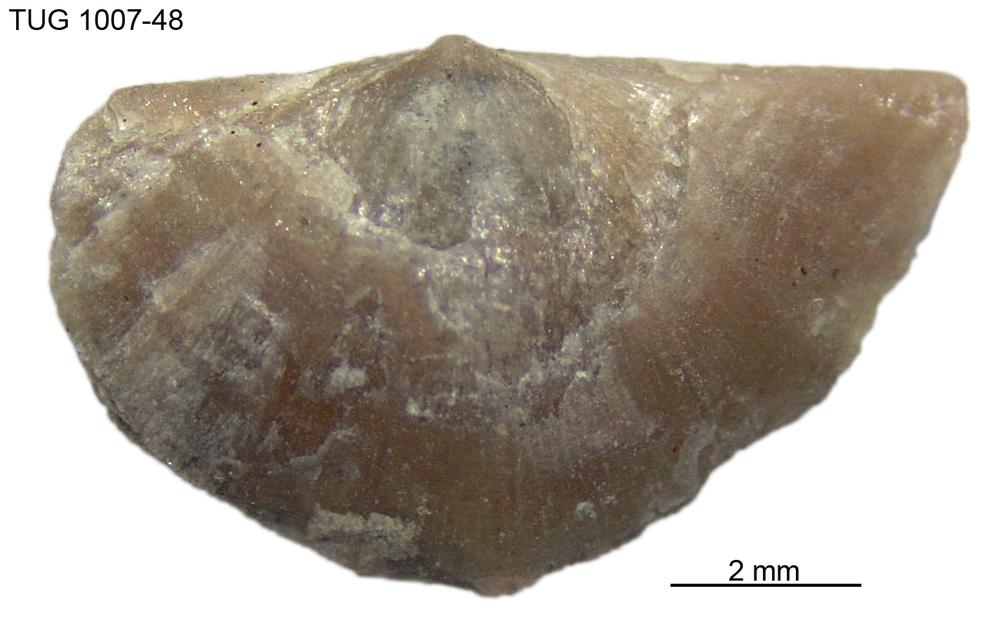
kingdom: Animalia
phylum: Brachiopoda
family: Oldhaminidae
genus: Eoplectodonta
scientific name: Eoplectodonta
